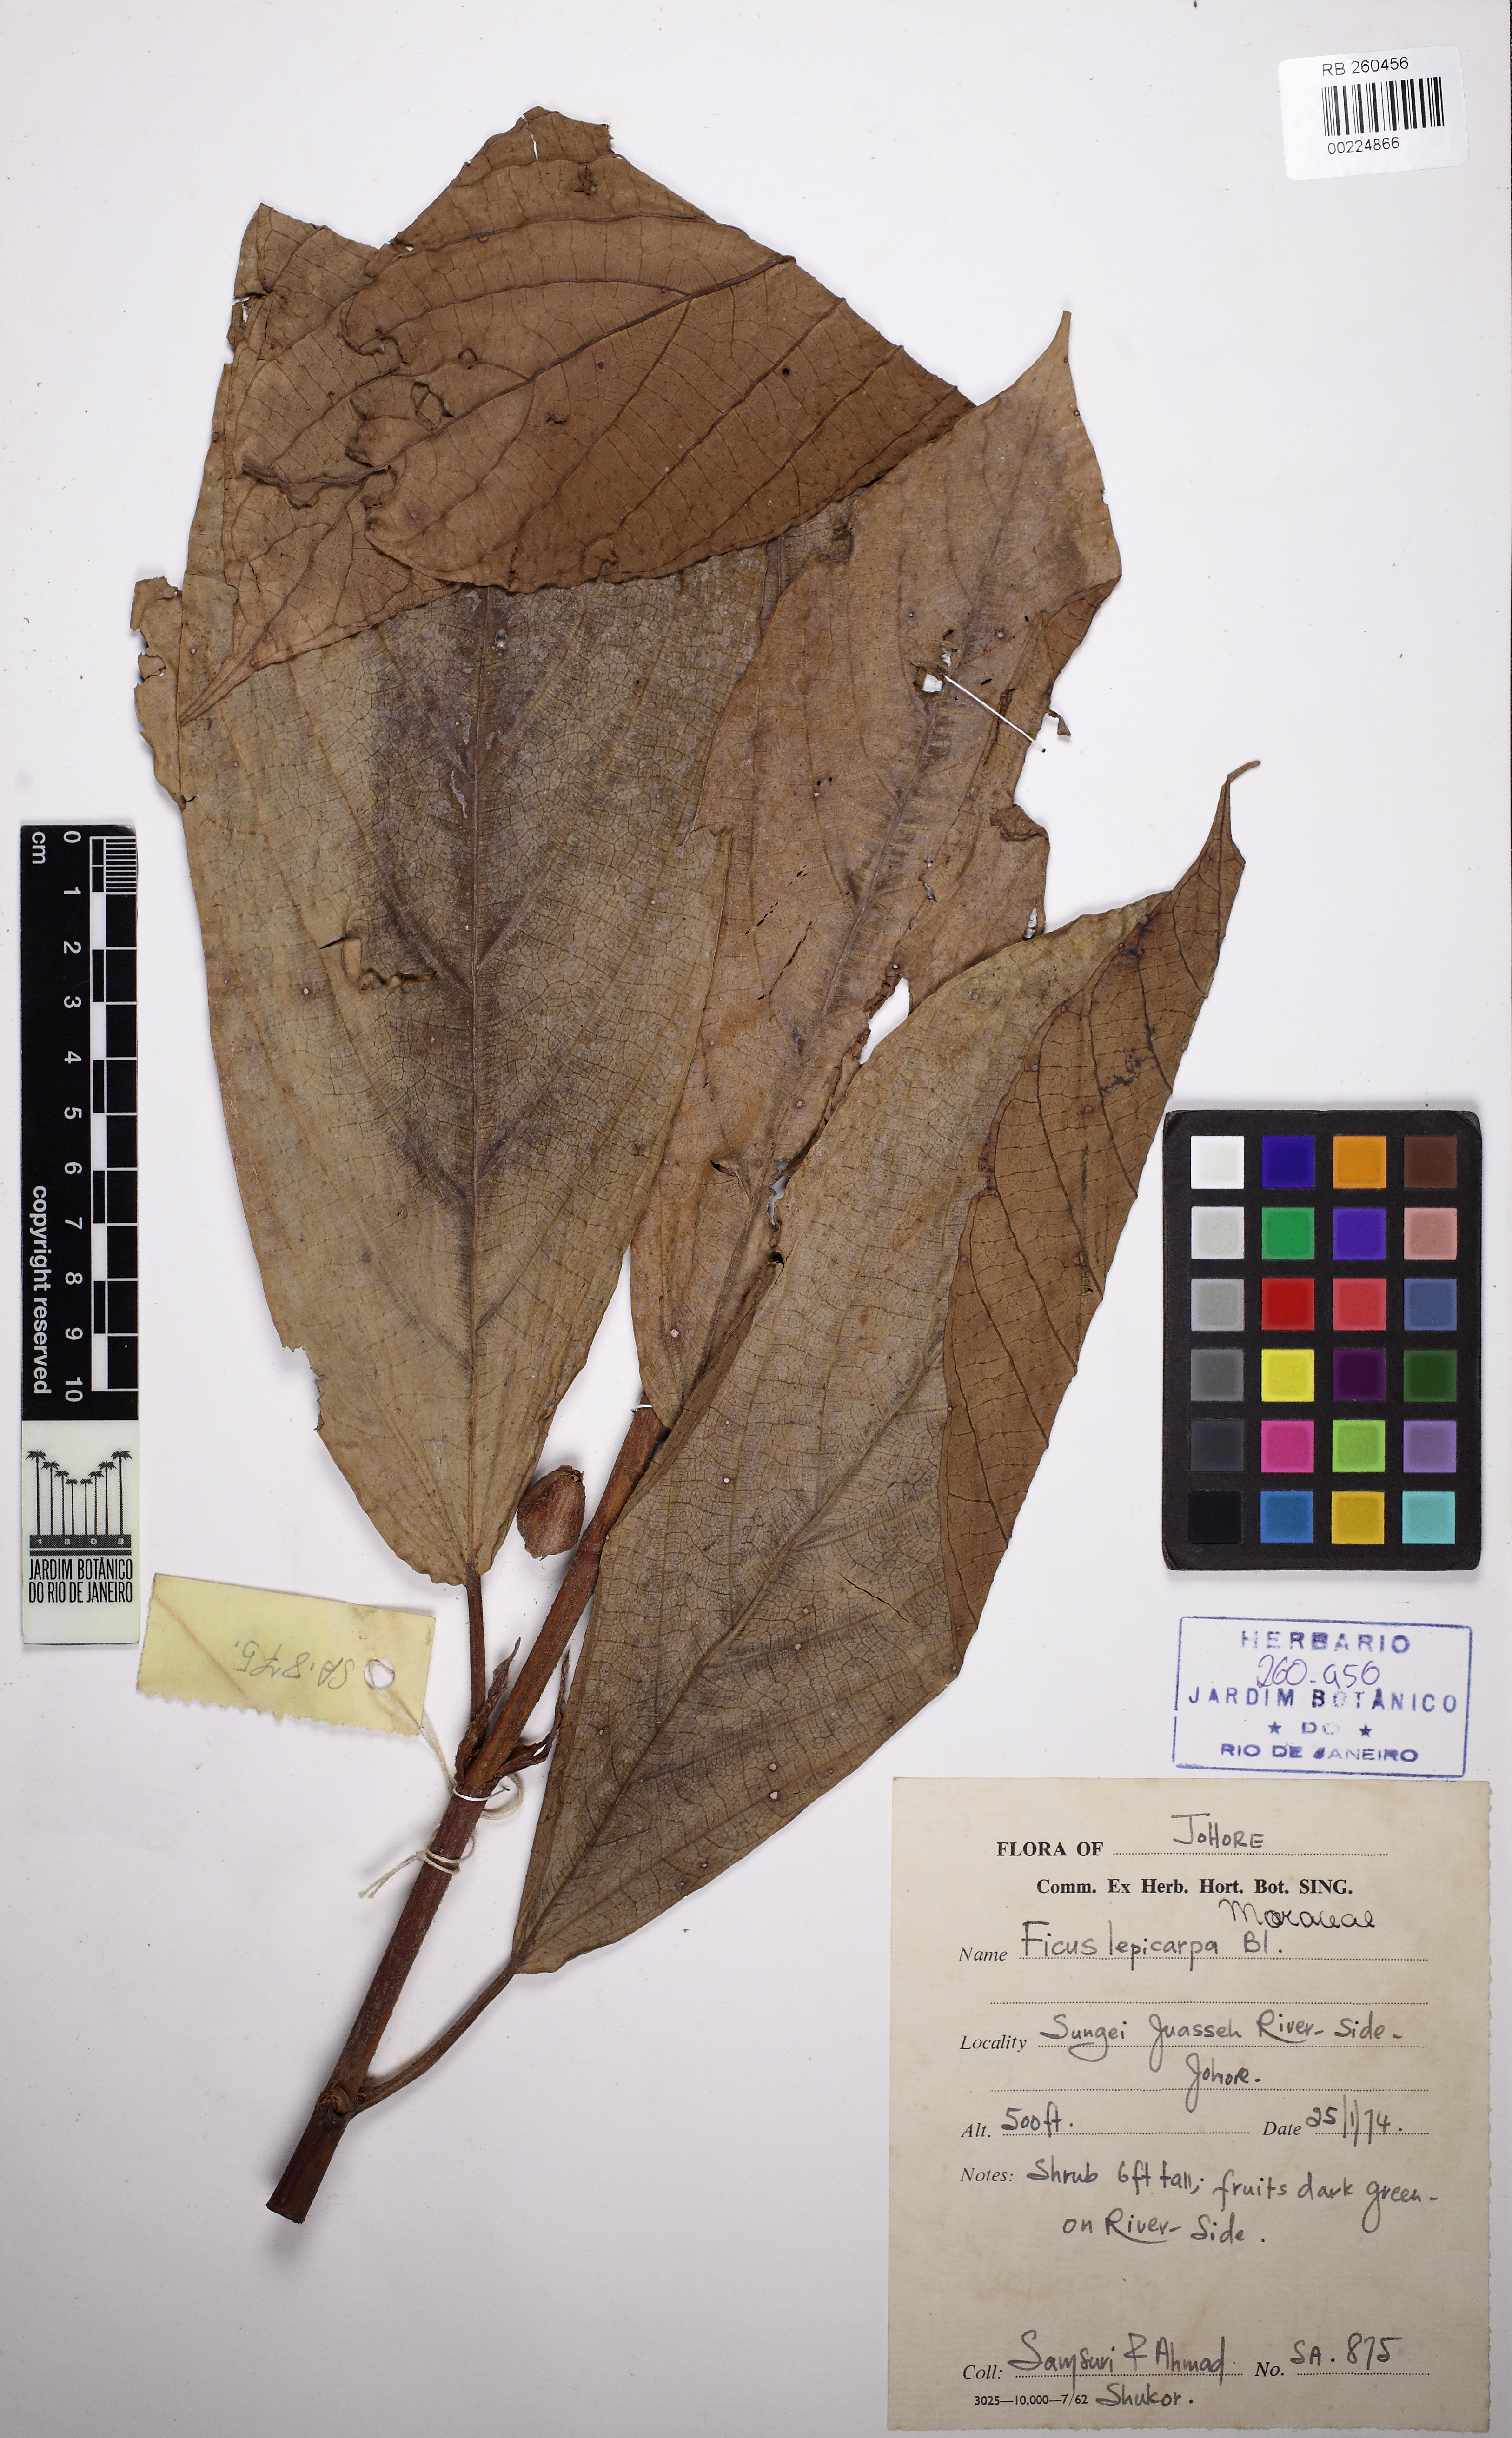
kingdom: Plantae
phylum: Tracheophyta
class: Magnoliopsida
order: Rosales
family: Moraceae
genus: Ficus
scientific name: Ficus lepicarpa
